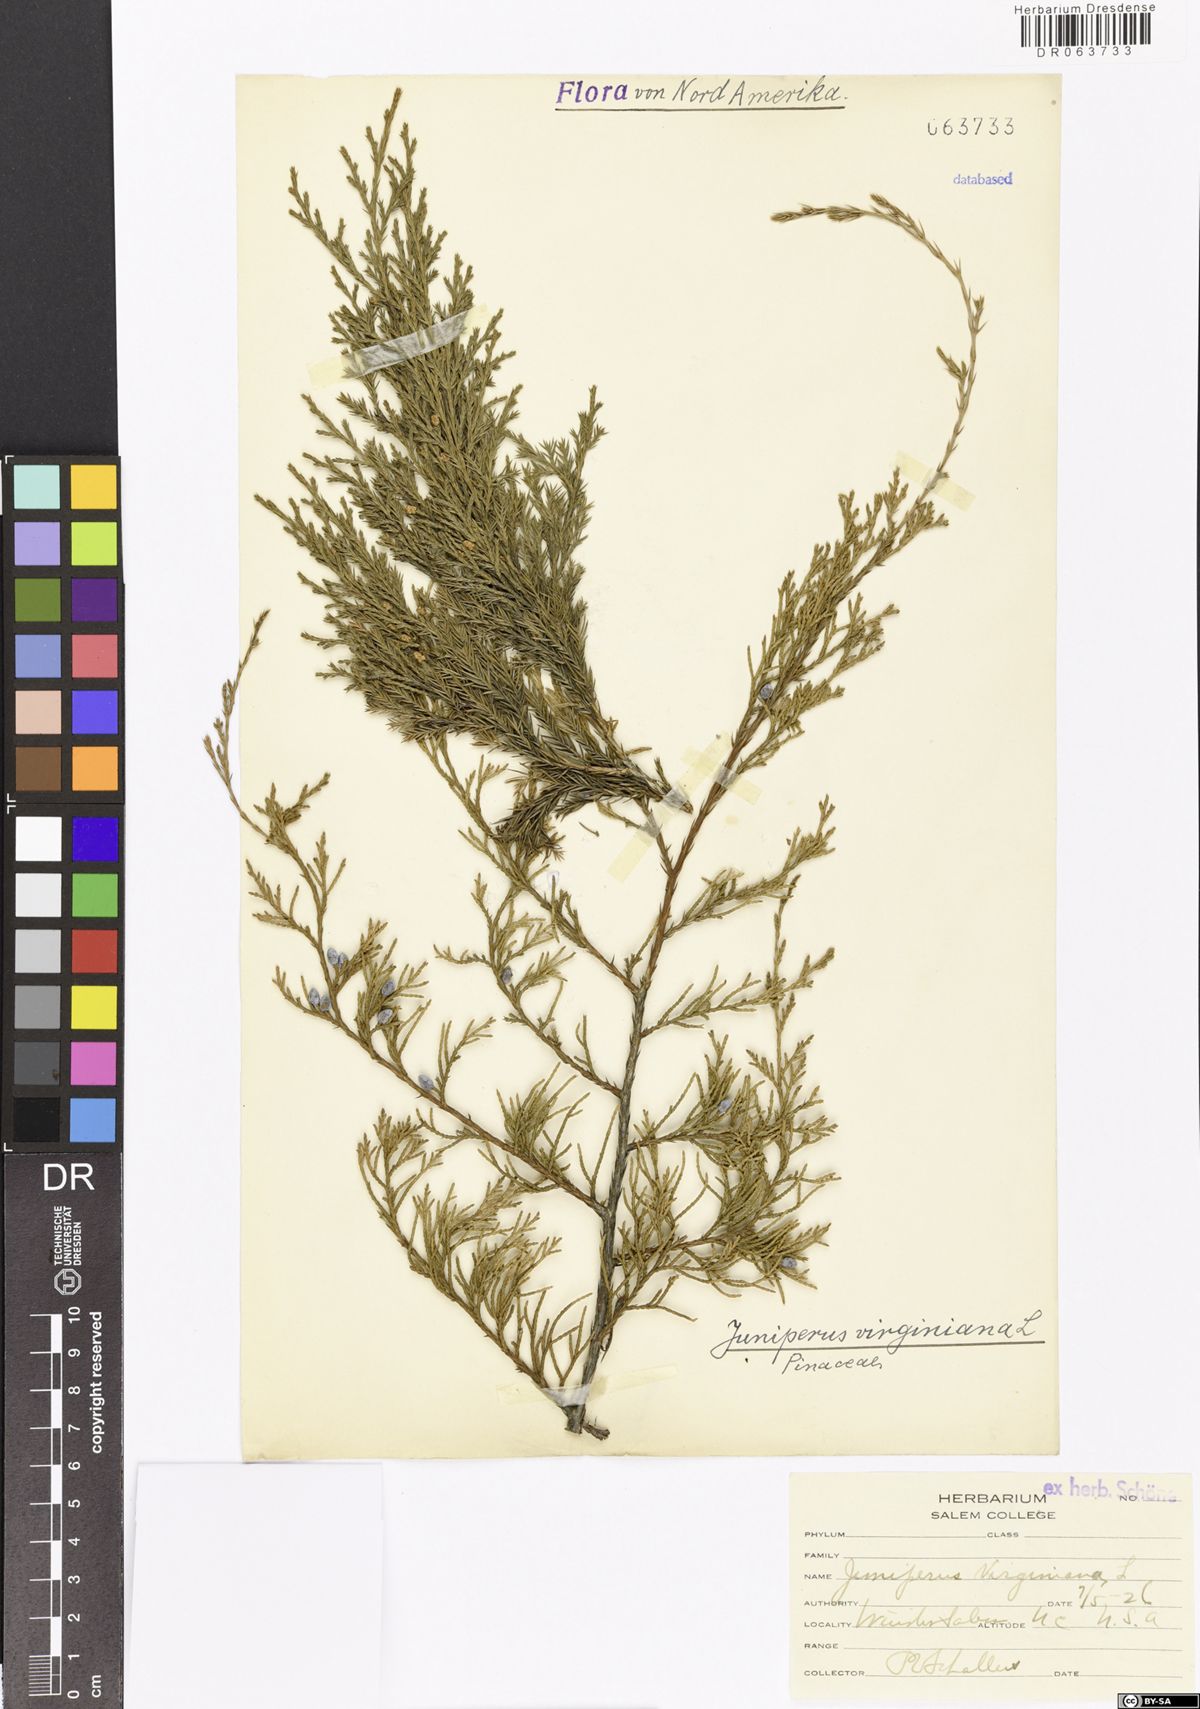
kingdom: Plantae
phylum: Tracheophyta
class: Pinopsida
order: Pinales
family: Cupressaceae
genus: Juniperus
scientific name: Juniperus virginiana
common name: Red juniper
